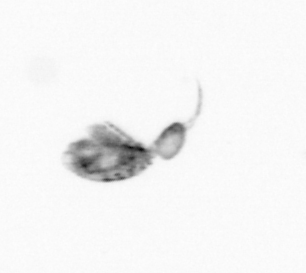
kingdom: Animalia
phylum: Arthropoda
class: Copepoda
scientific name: Copepoda
